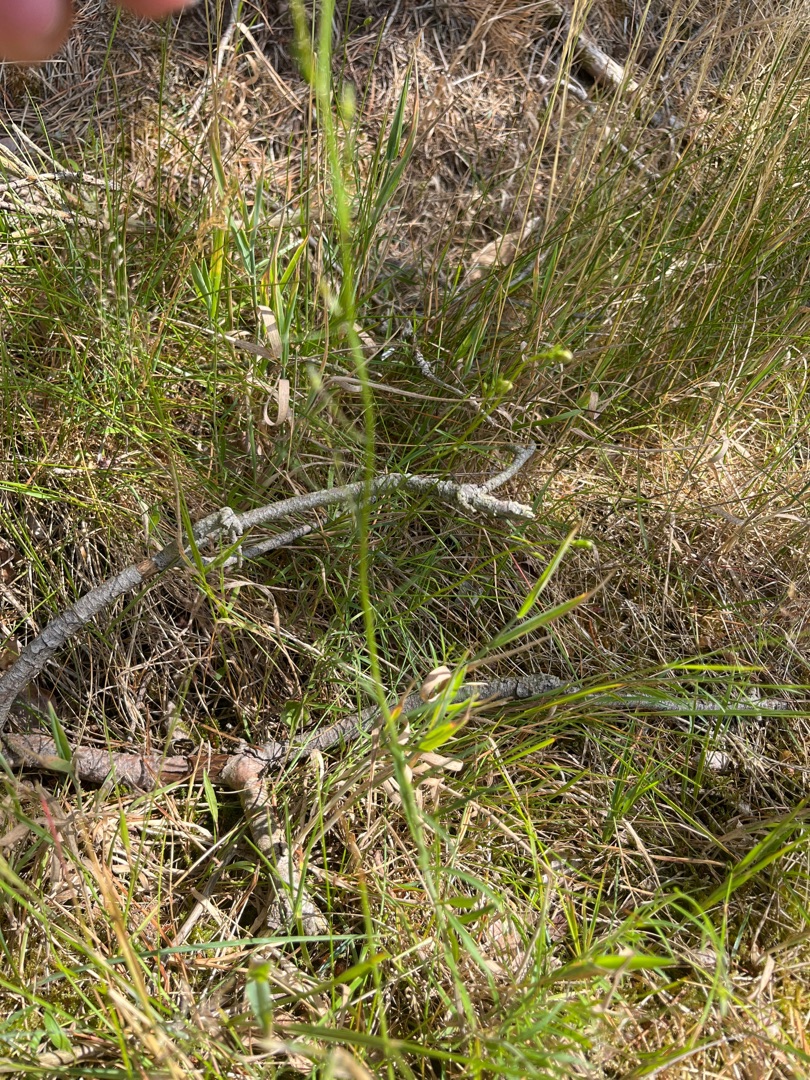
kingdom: Plantae
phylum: Tracheophyta
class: Magnoliopsida
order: Asterales
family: Campanulaceae
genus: Campanula
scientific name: Campanula rotundifolia
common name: Liden klokke
